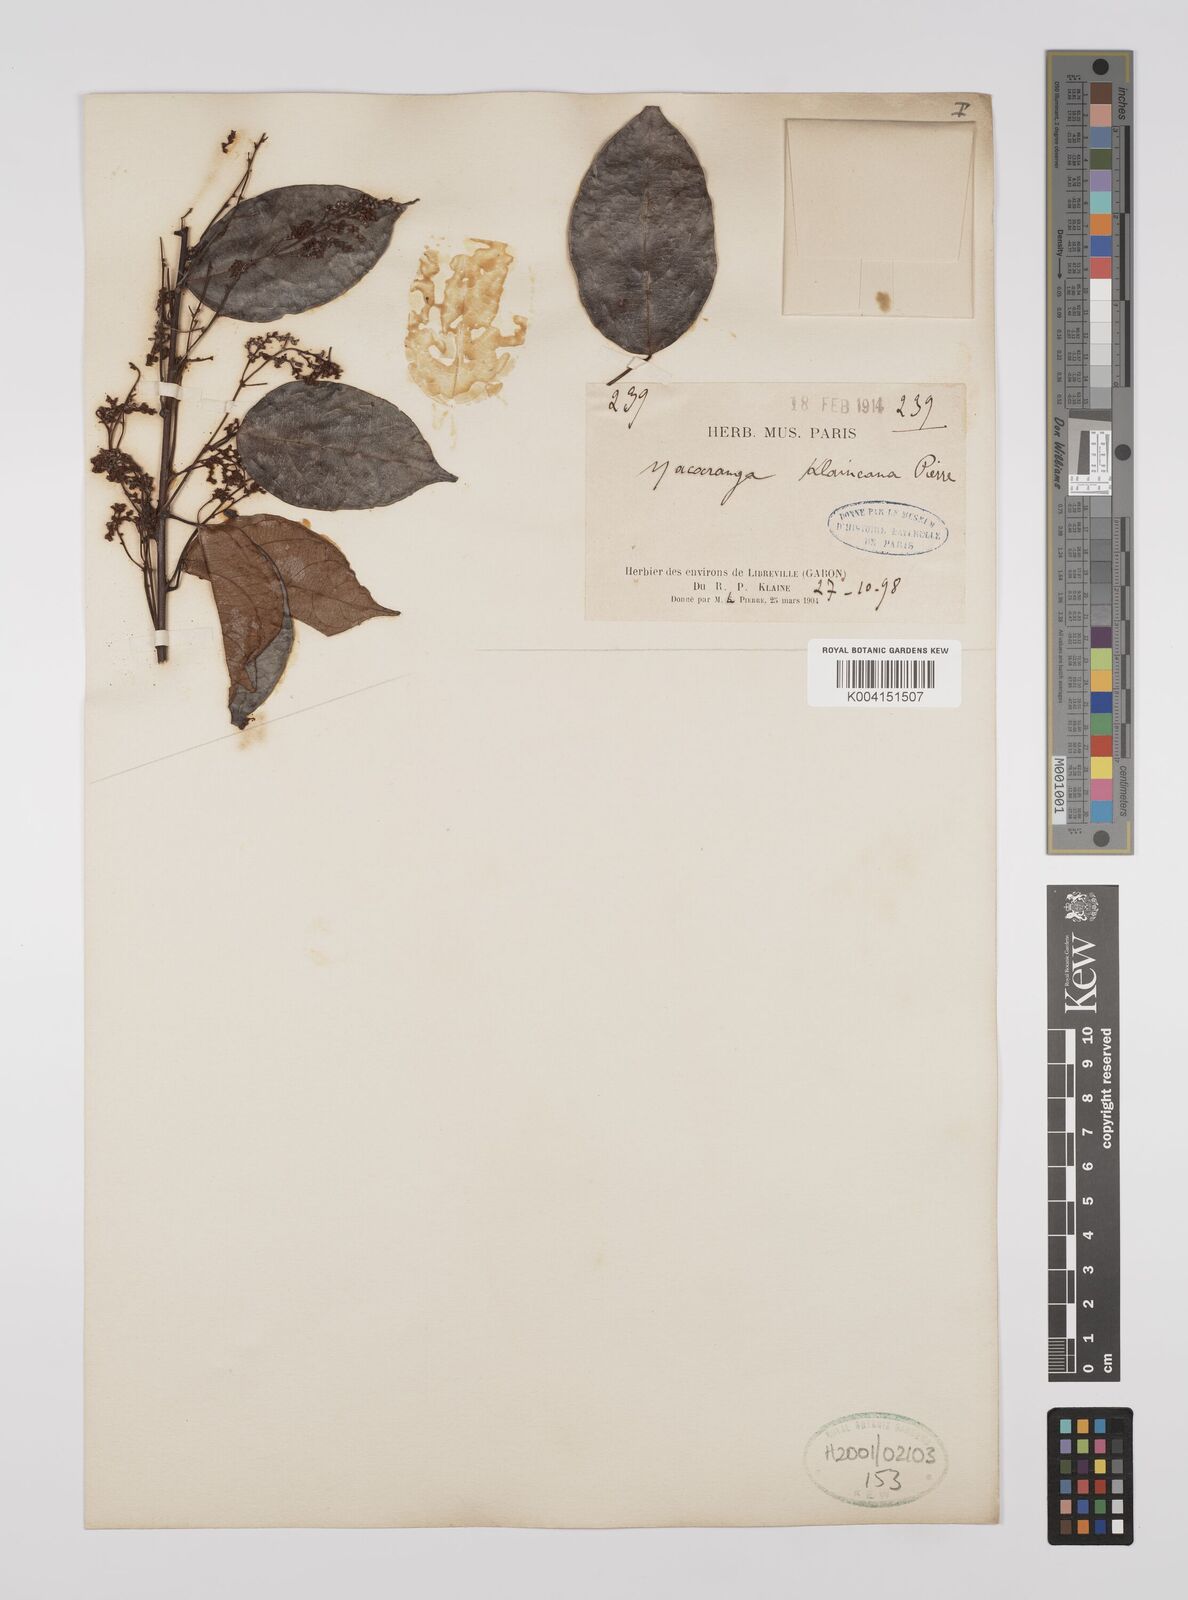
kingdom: Plantae
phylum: Tracheophyta
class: Magnoliopsida
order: Malpighiales
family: Euphorbiaceae
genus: Macaranga
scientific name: Macaranga klaineana
